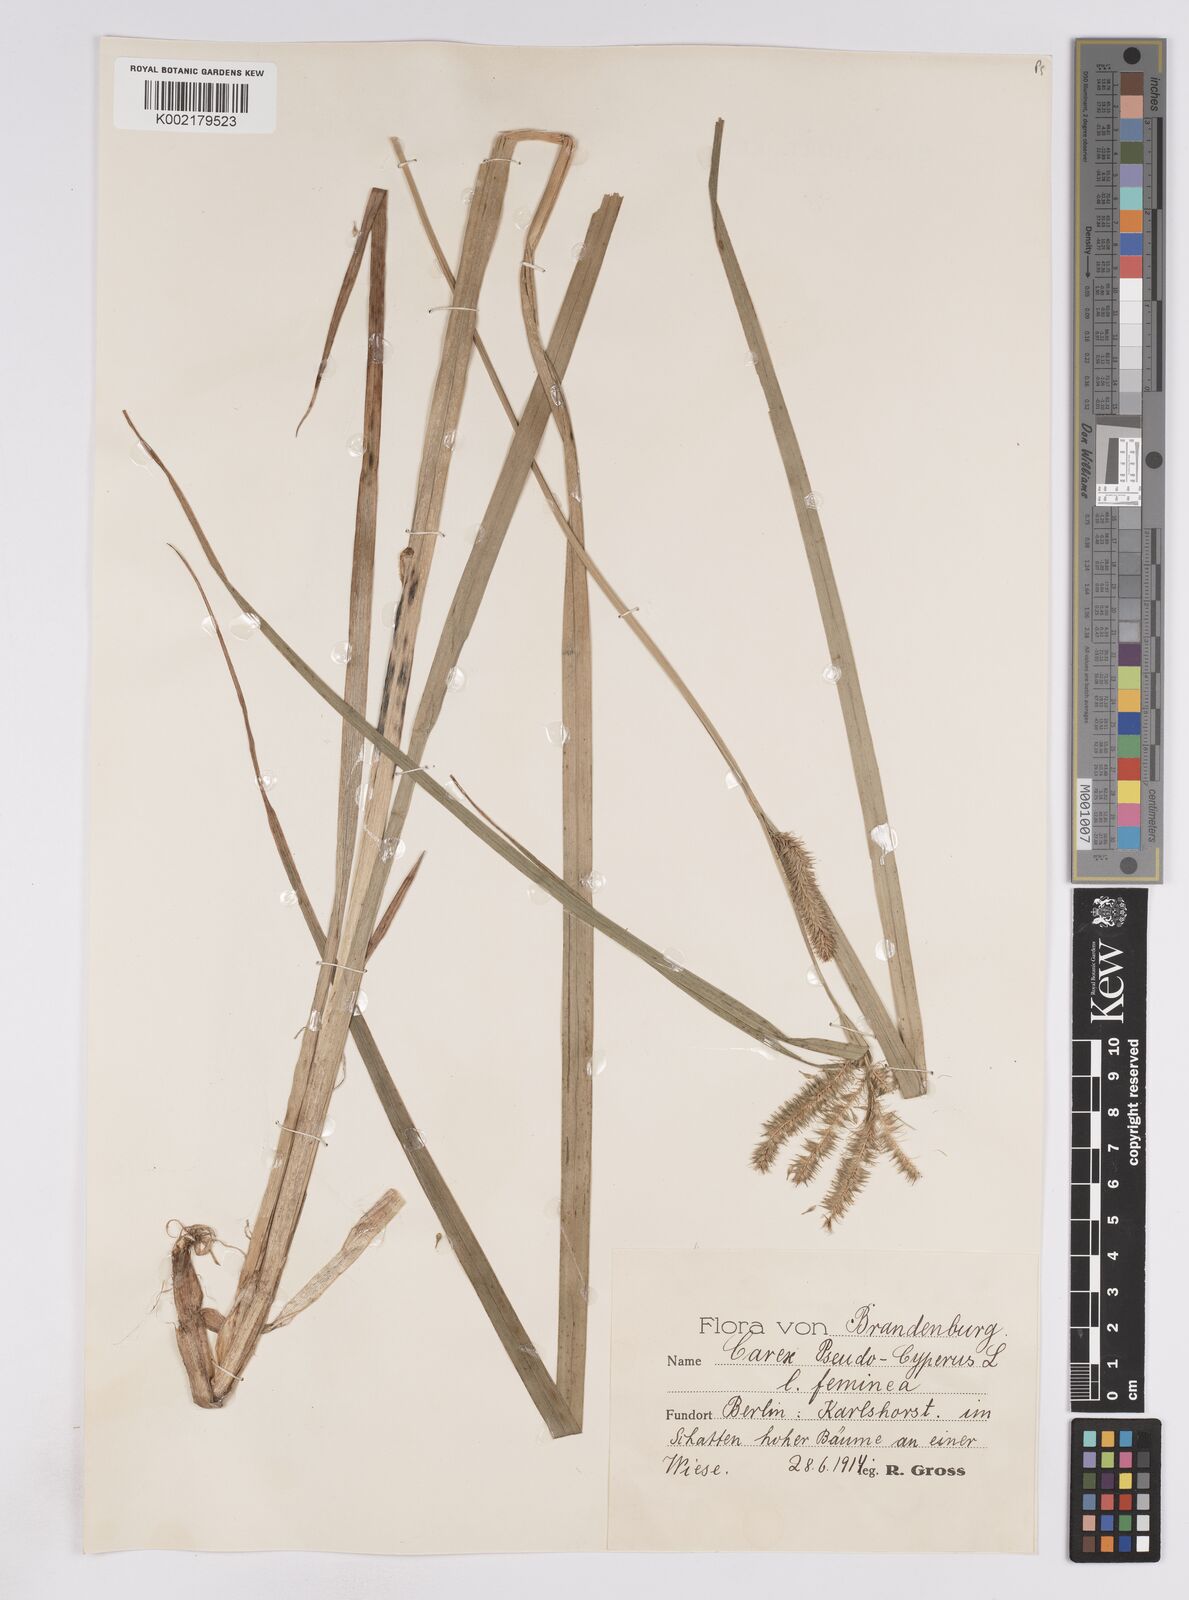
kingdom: Plantae
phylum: Tracheophyta
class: Liliopsida
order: Poales
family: Cyperaceae
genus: Carex
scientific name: Carex pseudocyperus
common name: Cyperus sedge
